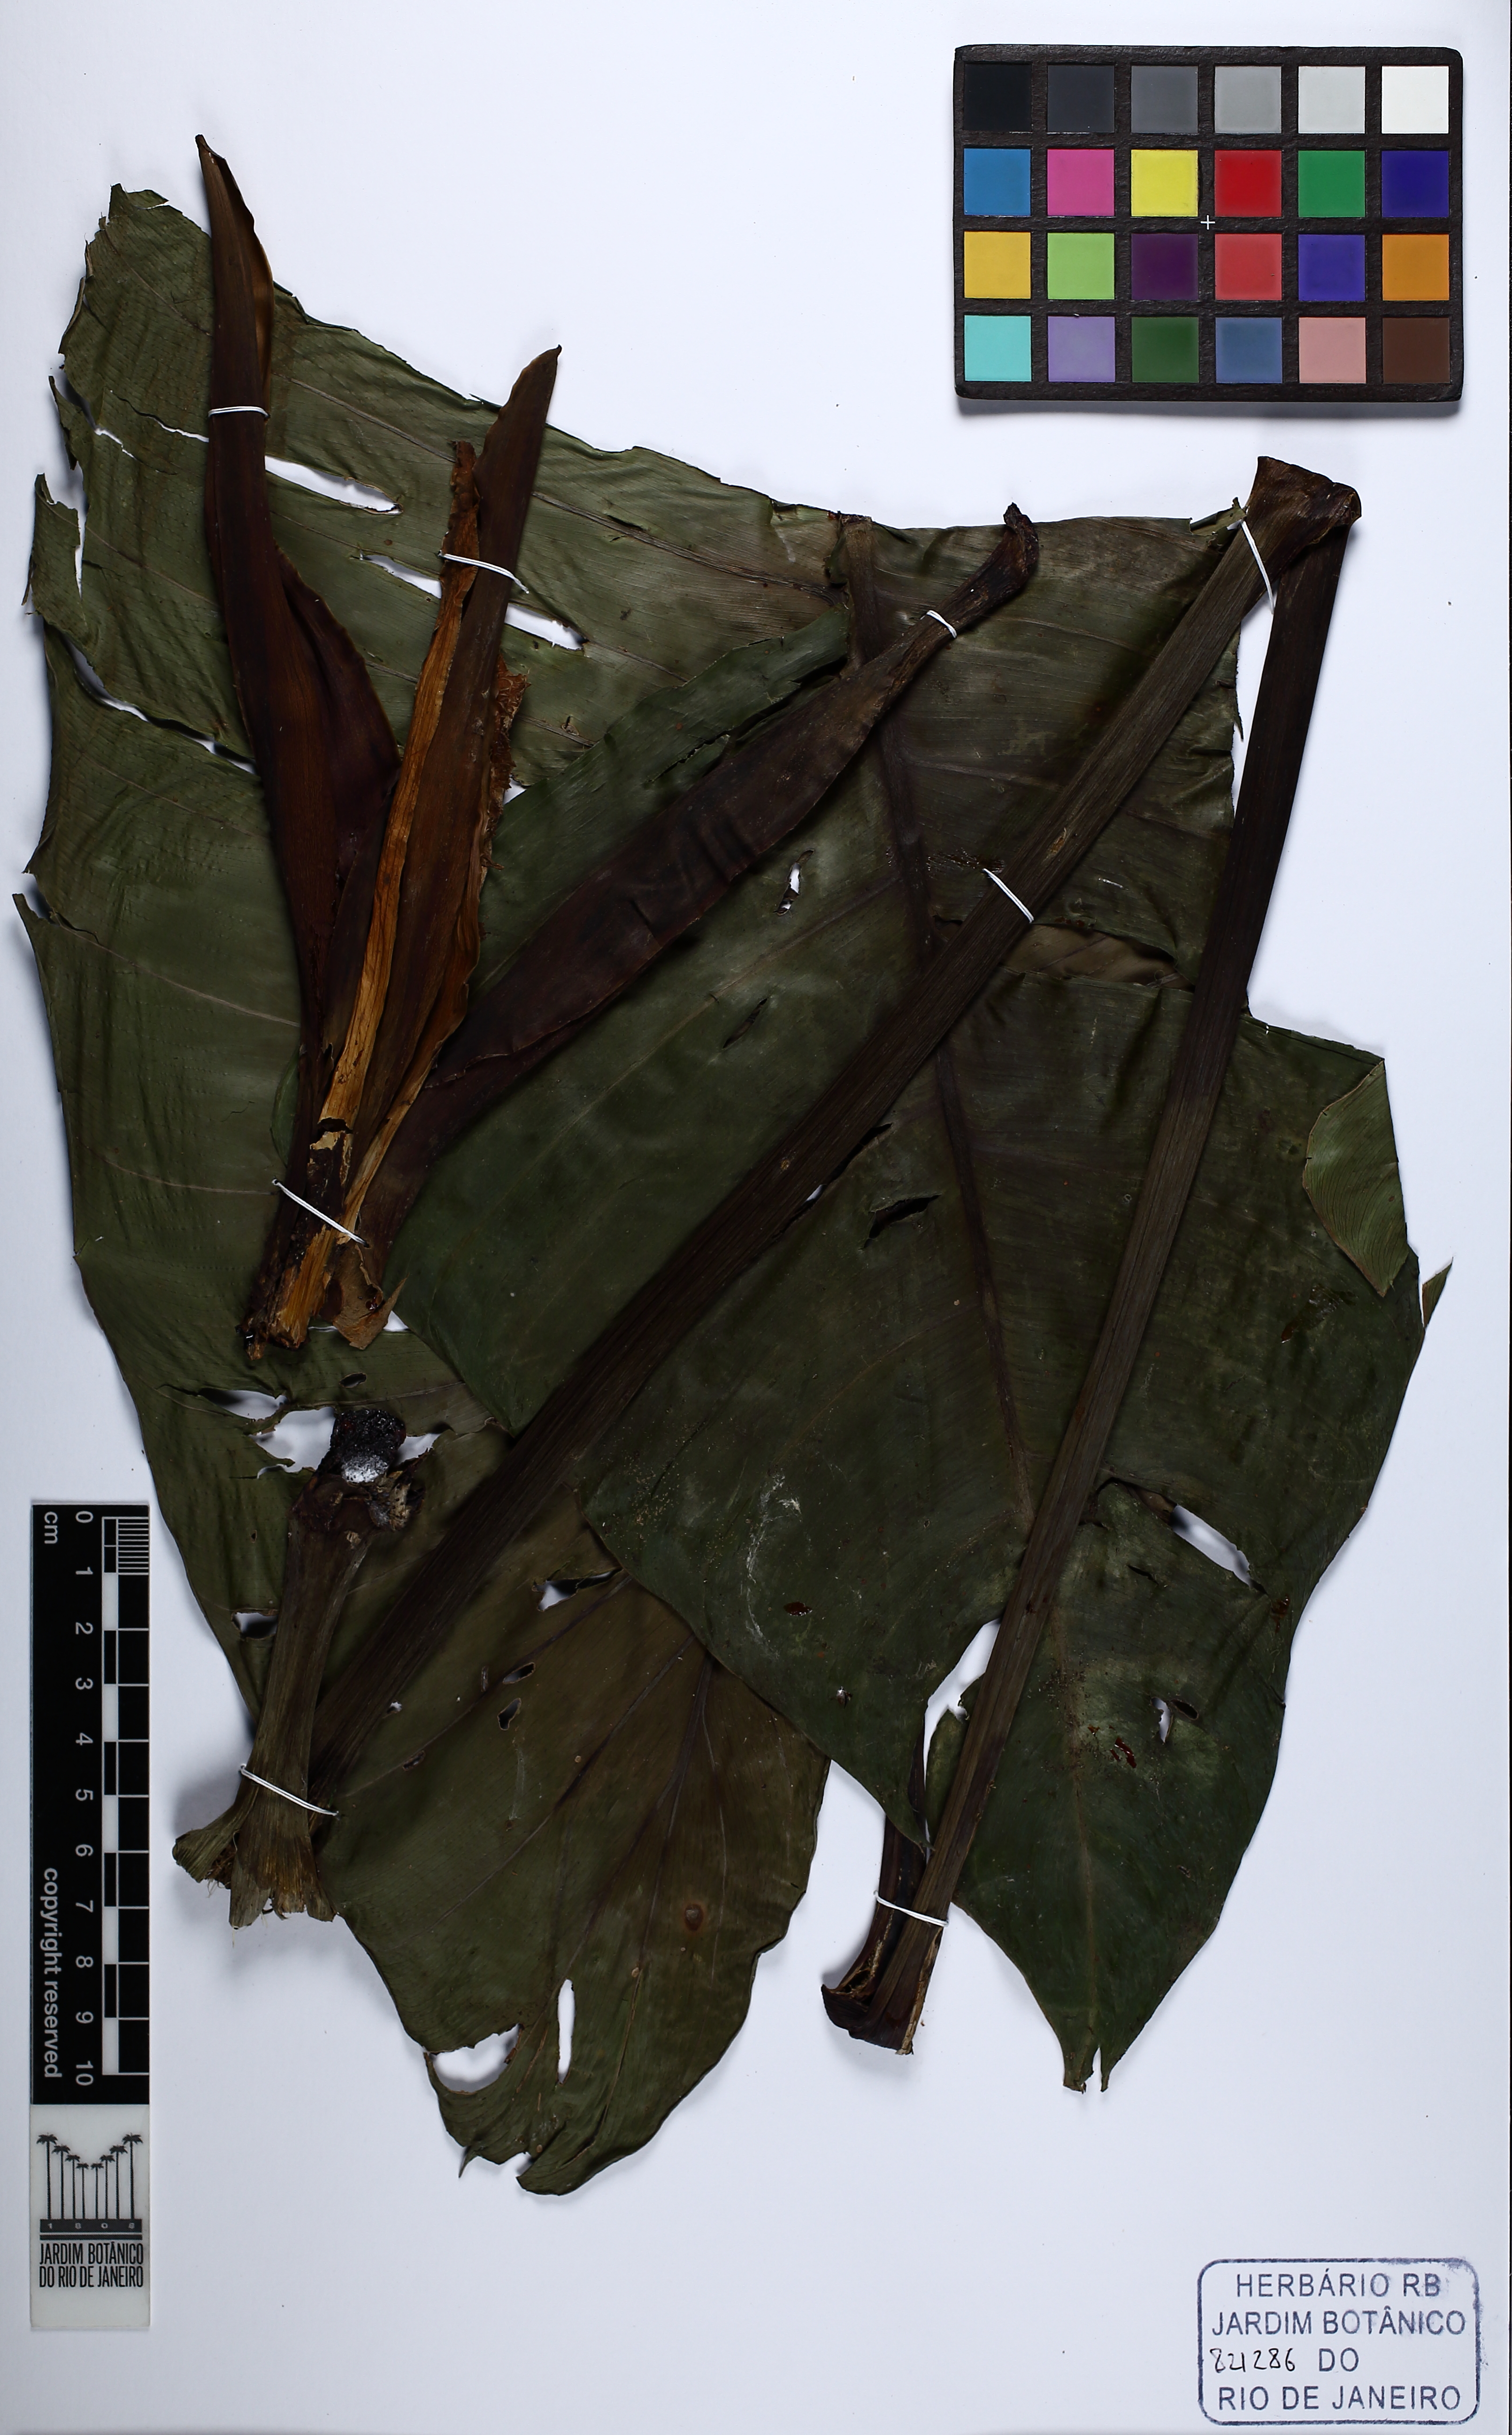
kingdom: Plantae
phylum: Tracheophyta
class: Liliopsida
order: Alismatales
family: Araceae
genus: Philodendron
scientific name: Philodendron
